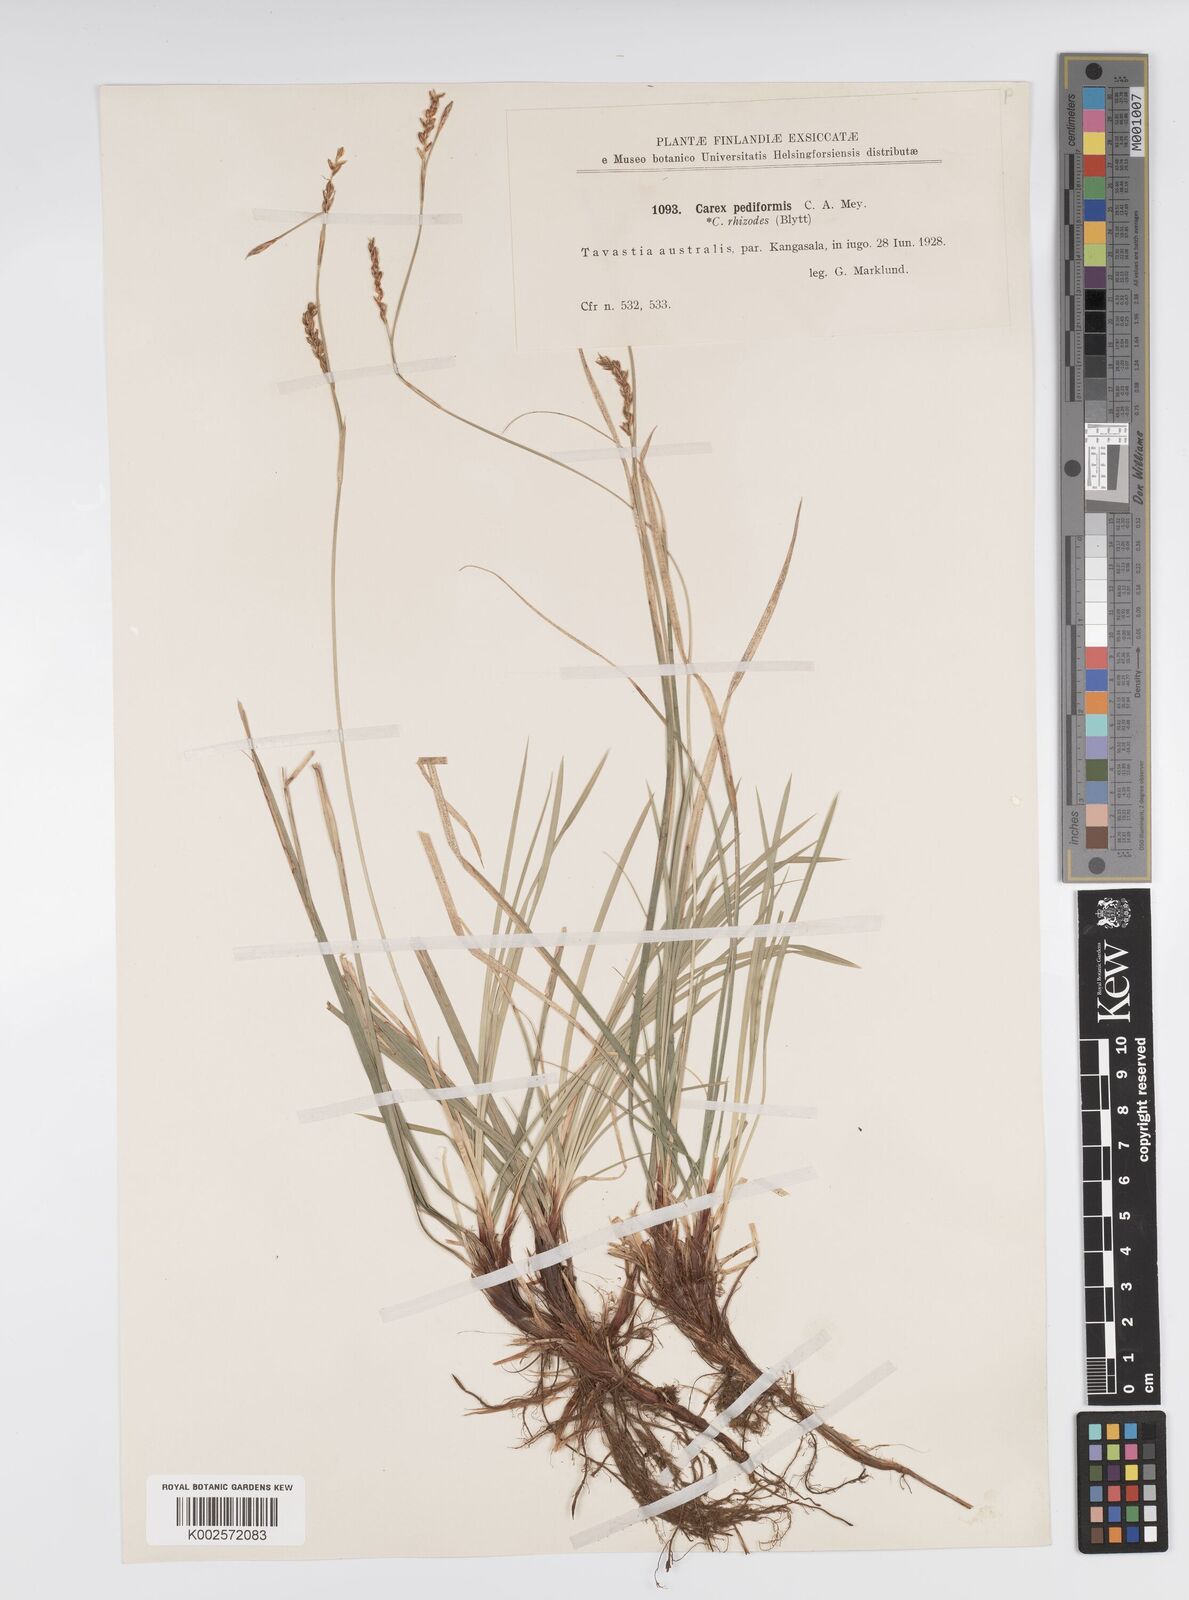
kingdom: Plantae
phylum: Tracheophyta
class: Liliopsida
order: Poales
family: Cyperaceae
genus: Carex
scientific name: Carex pediformis
